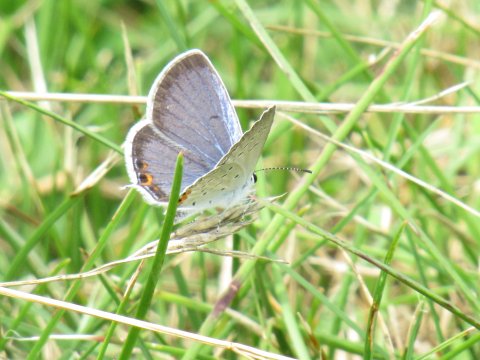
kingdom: Animalia
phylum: Arthropoda
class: Insecta
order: Lepidoptera
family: Lycaenidae
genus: Elkalyce
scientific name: Elkalyce comyntas
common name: Eastern Tailed-Blue
